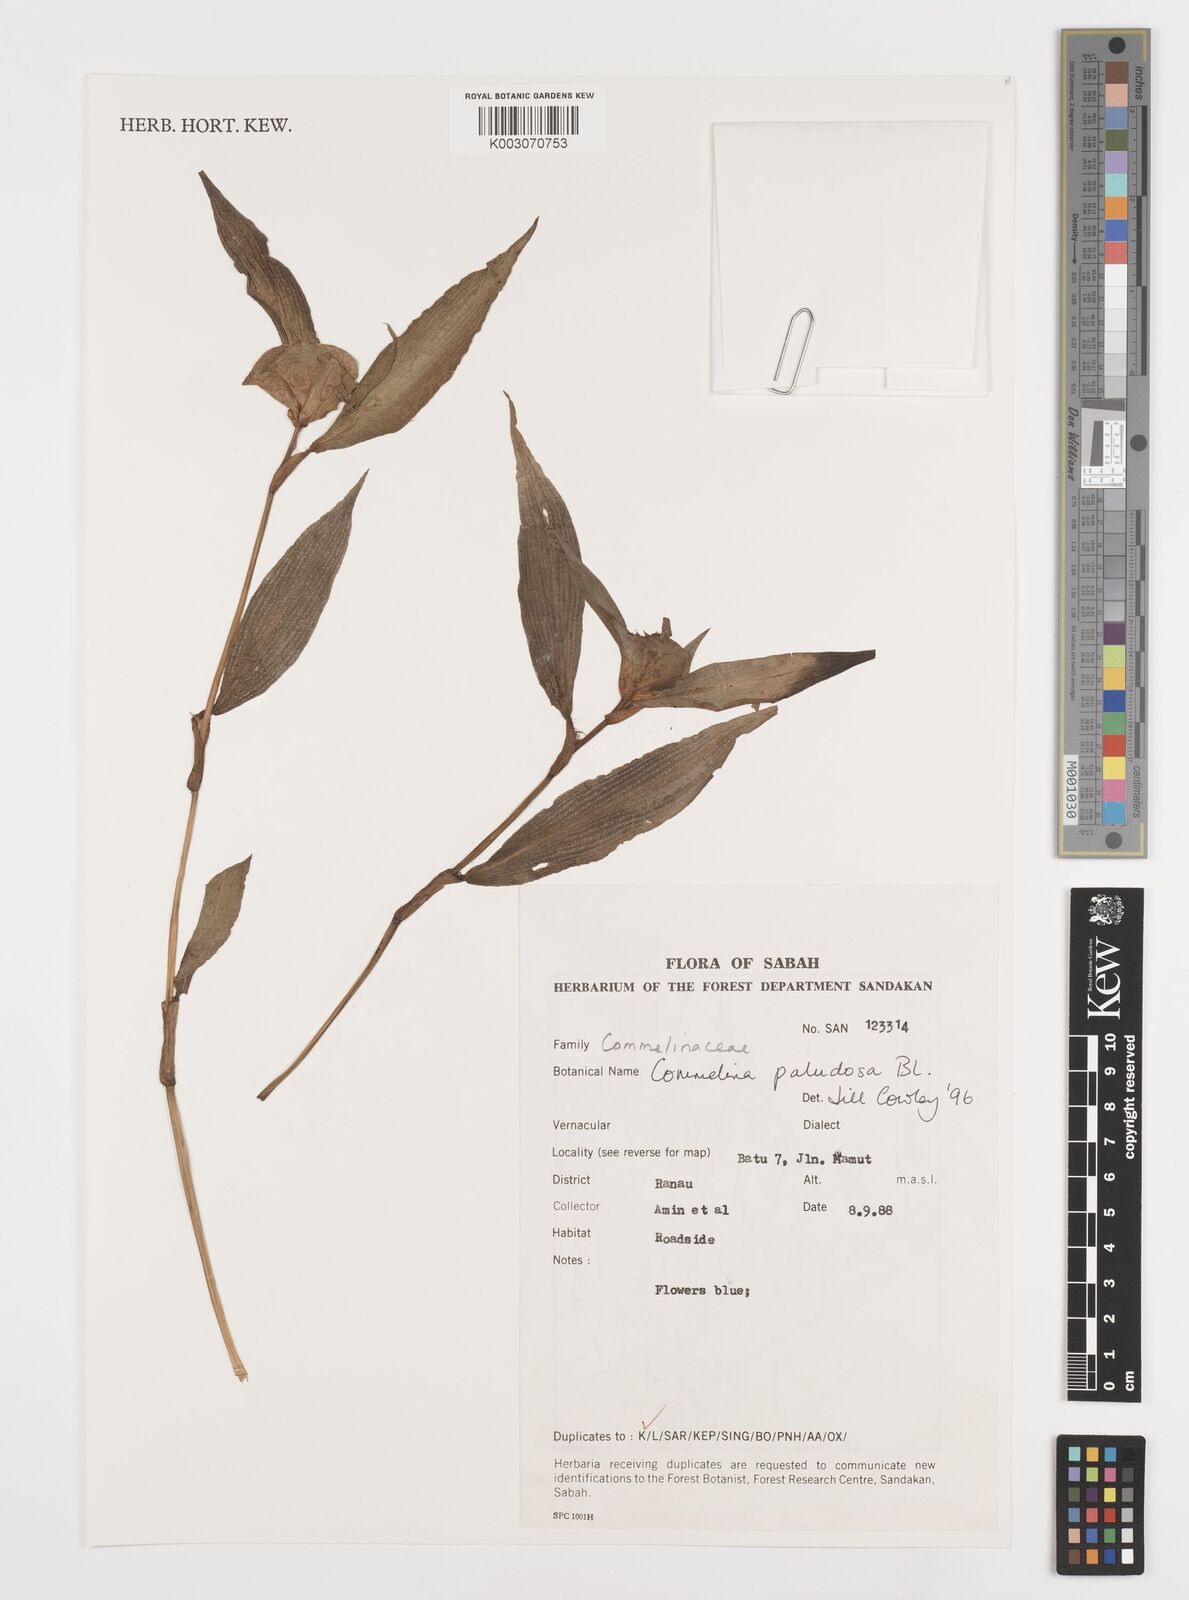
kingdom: Plantae
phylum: Tracheophyta
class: Liliopsida
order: Commelinales
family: Commelinaceae
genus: Commelina
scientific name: Commelina paludosa
